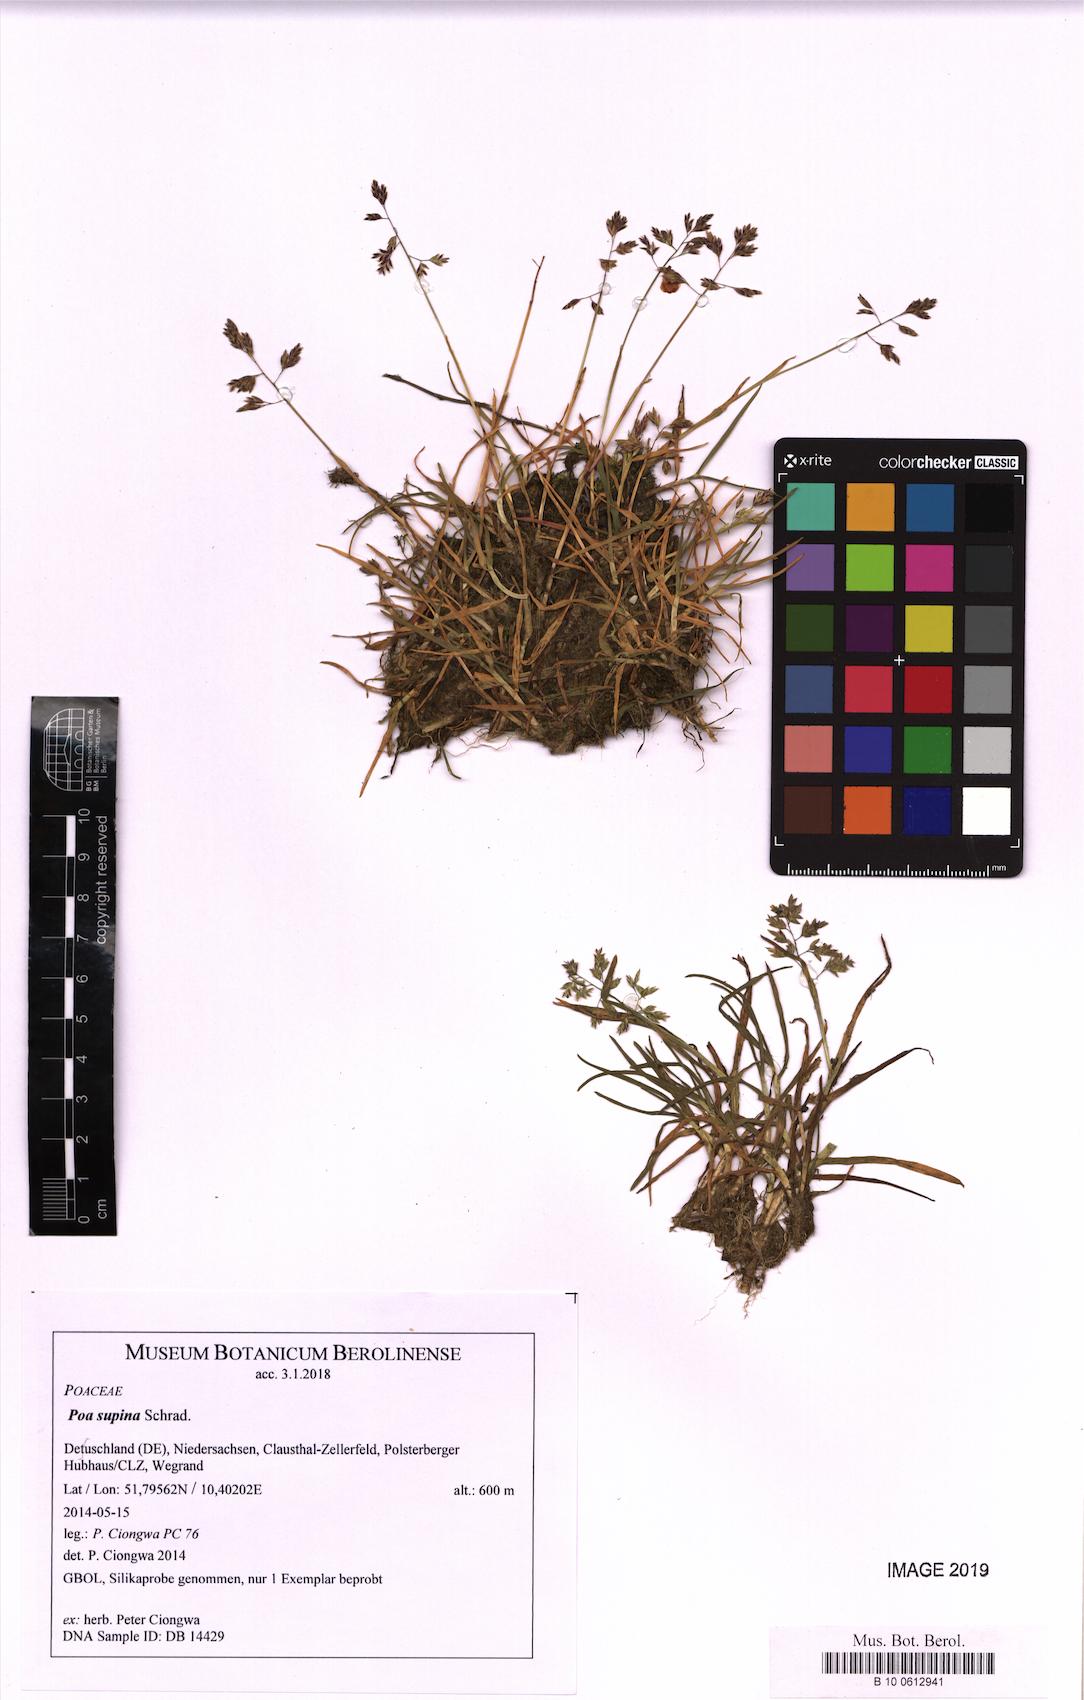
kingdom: Plantae
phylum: Tracheophyta
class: Liliopsida
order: Poales
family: Poaceae
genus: Poa
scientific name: Poa supina
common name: Supina bluegrass
